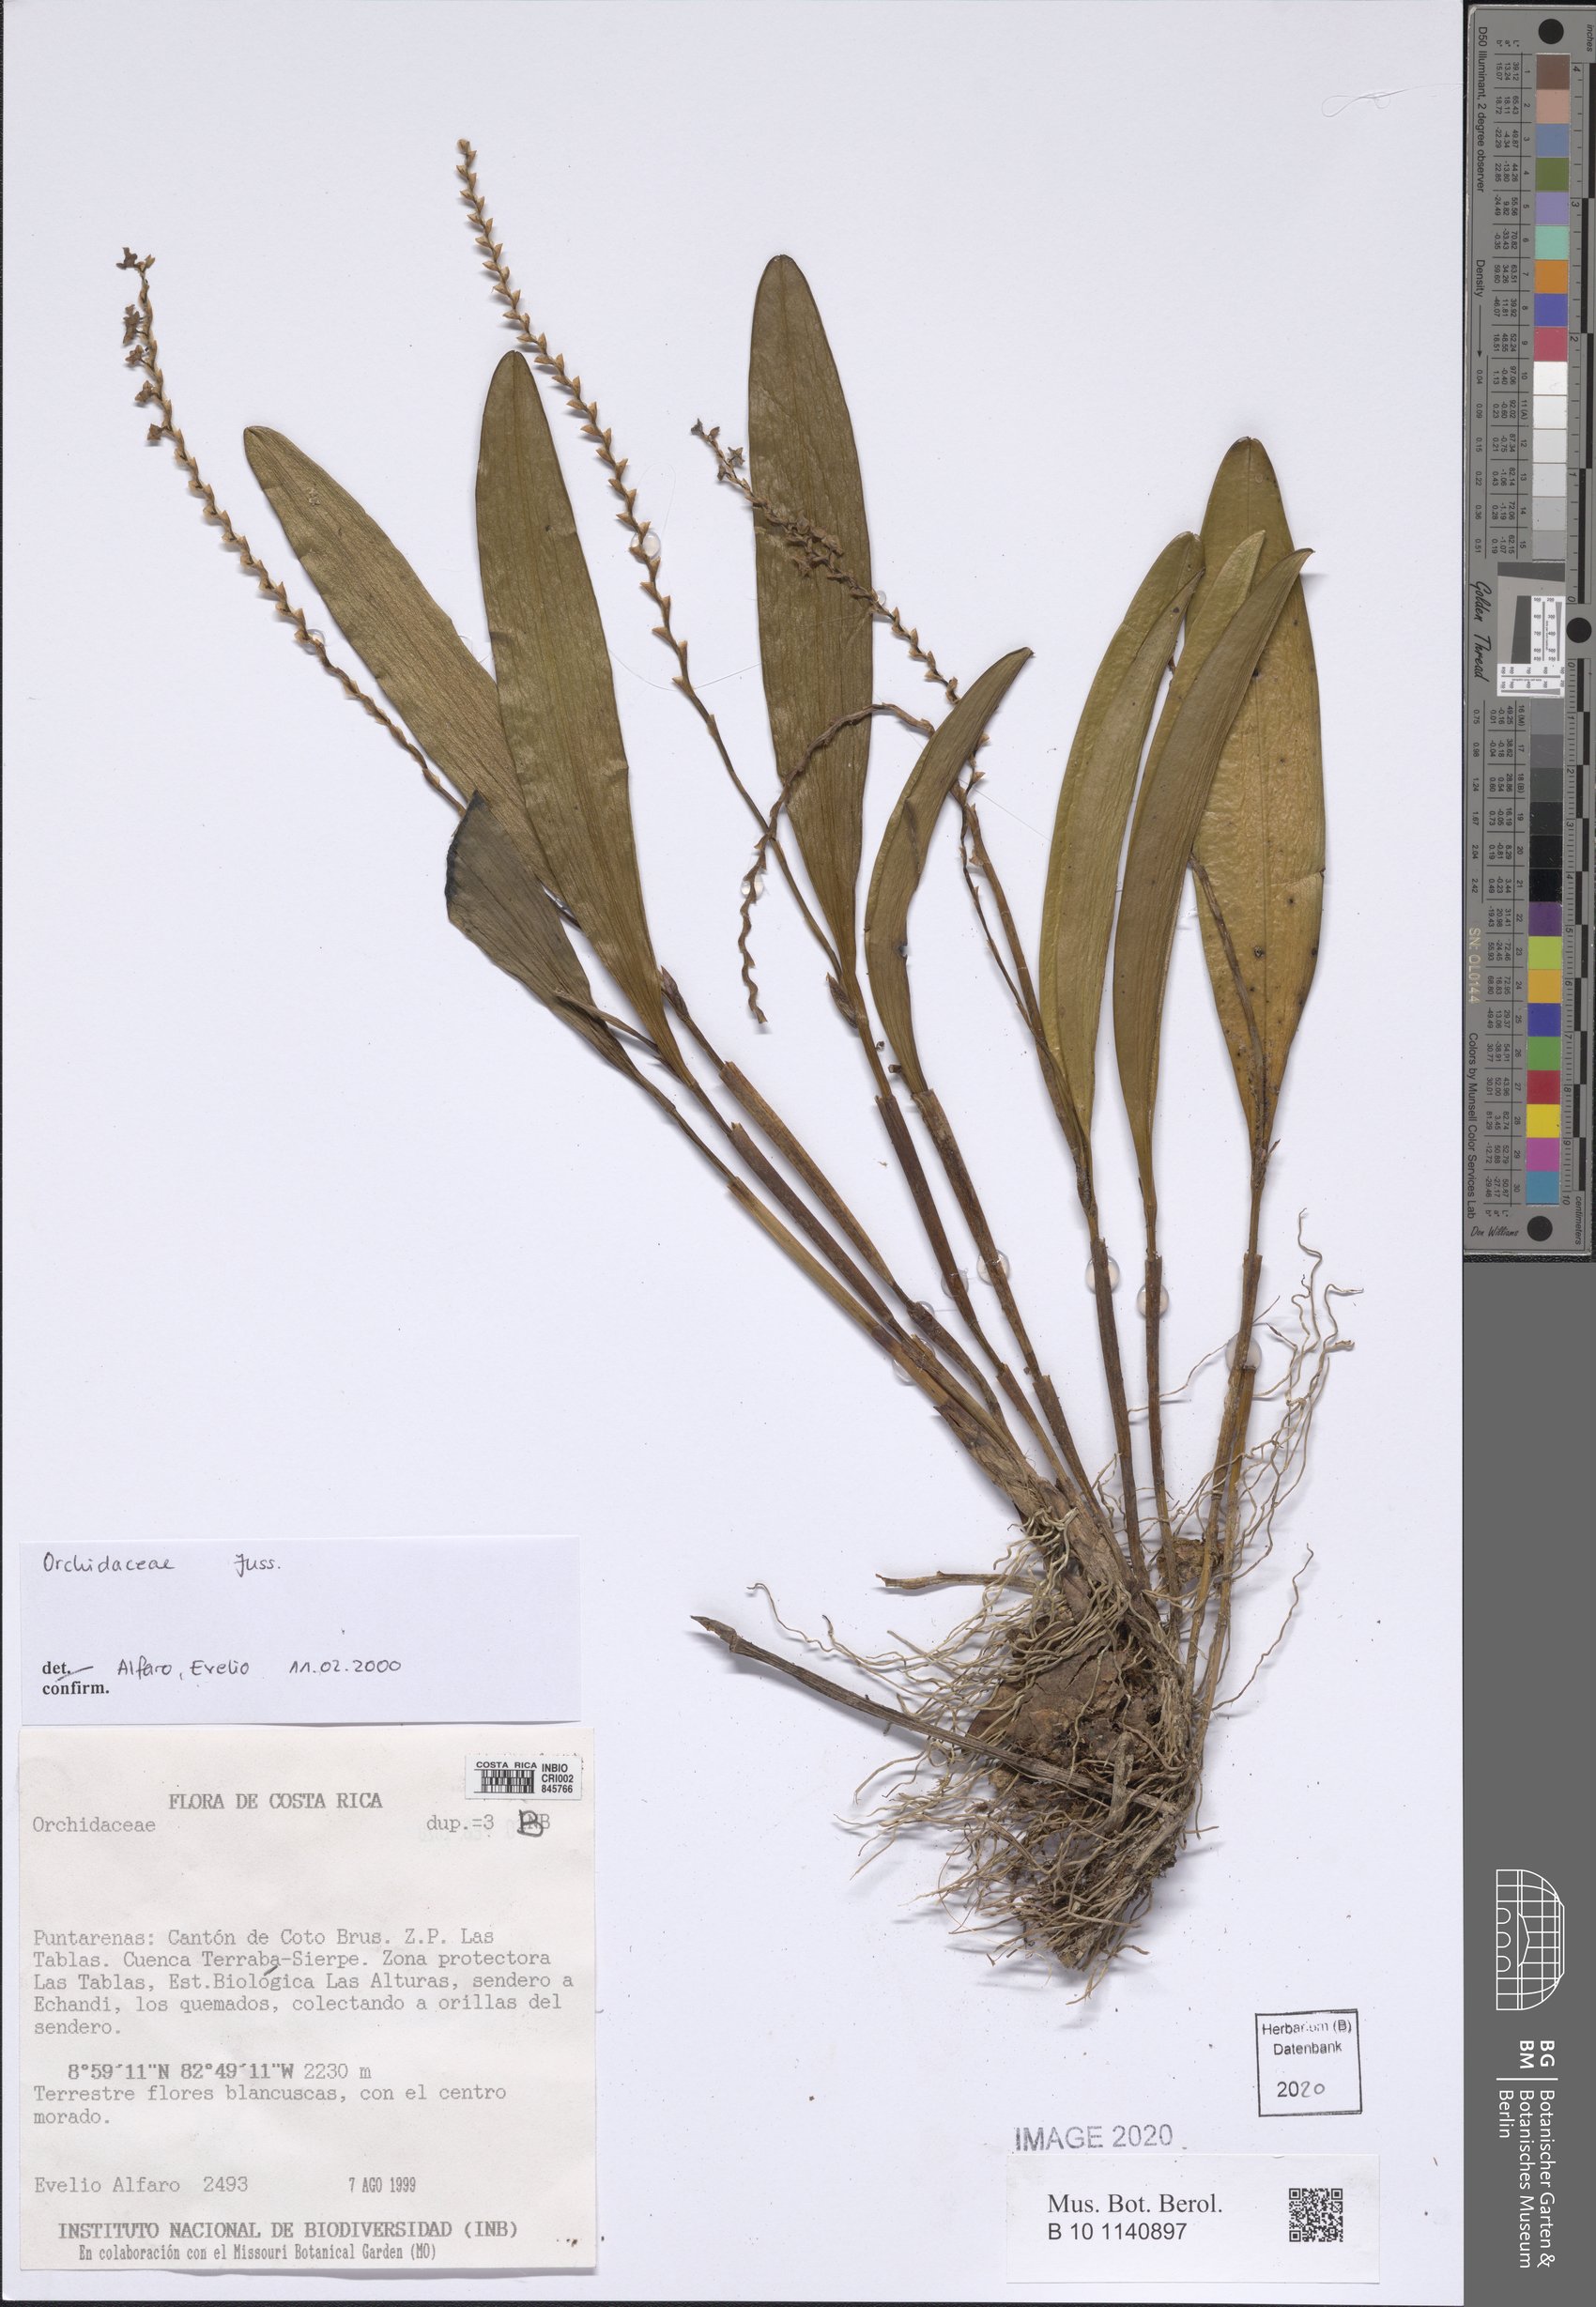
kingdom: Plantae
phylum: Tracheophyta
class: Liliopsida
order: Asparagales
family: Orchidaceae
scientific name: Orchidaceae
